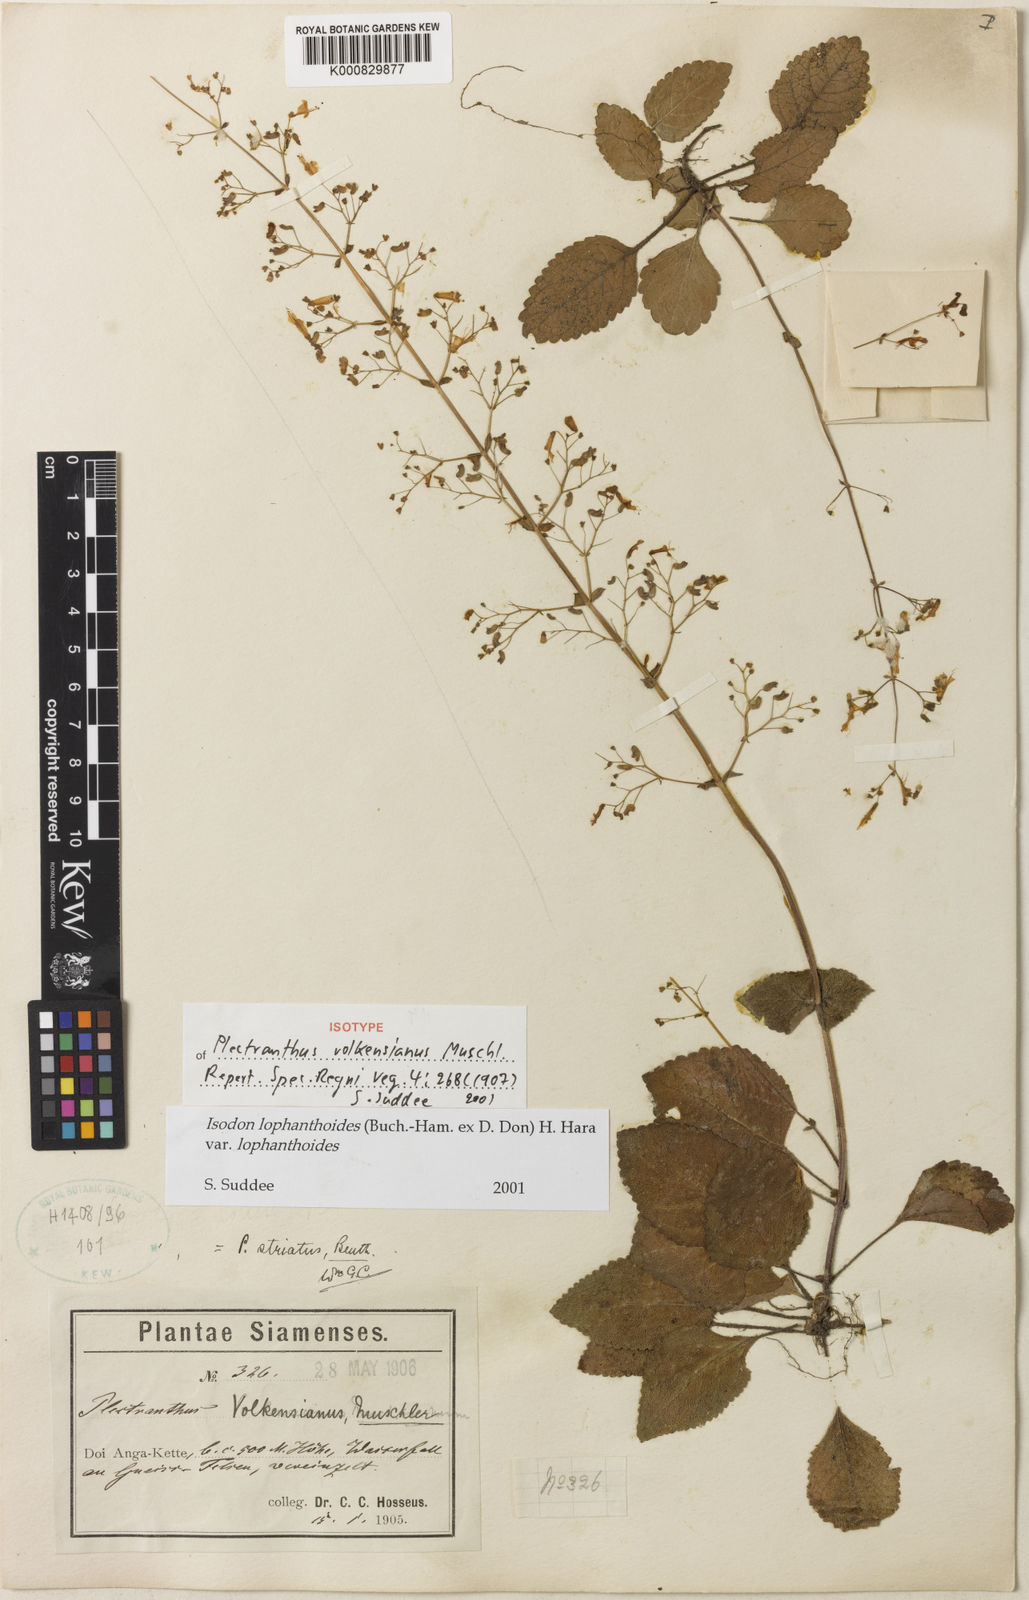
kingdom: Plantae
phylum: Tracheophyta
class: Magnoliopsida
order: Lamiales
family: Lamiaceae
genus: Isodon
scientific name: Isodon lophanthoides
